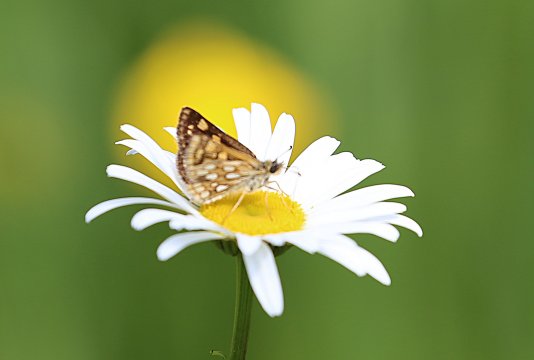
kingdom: Animalia
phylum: Arthropoda
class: Insecta
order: Lepidoptera
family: Hesperiidae
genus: Carterocephalus
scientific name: Carterocephalus palaemon
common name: Chequered Skipper
